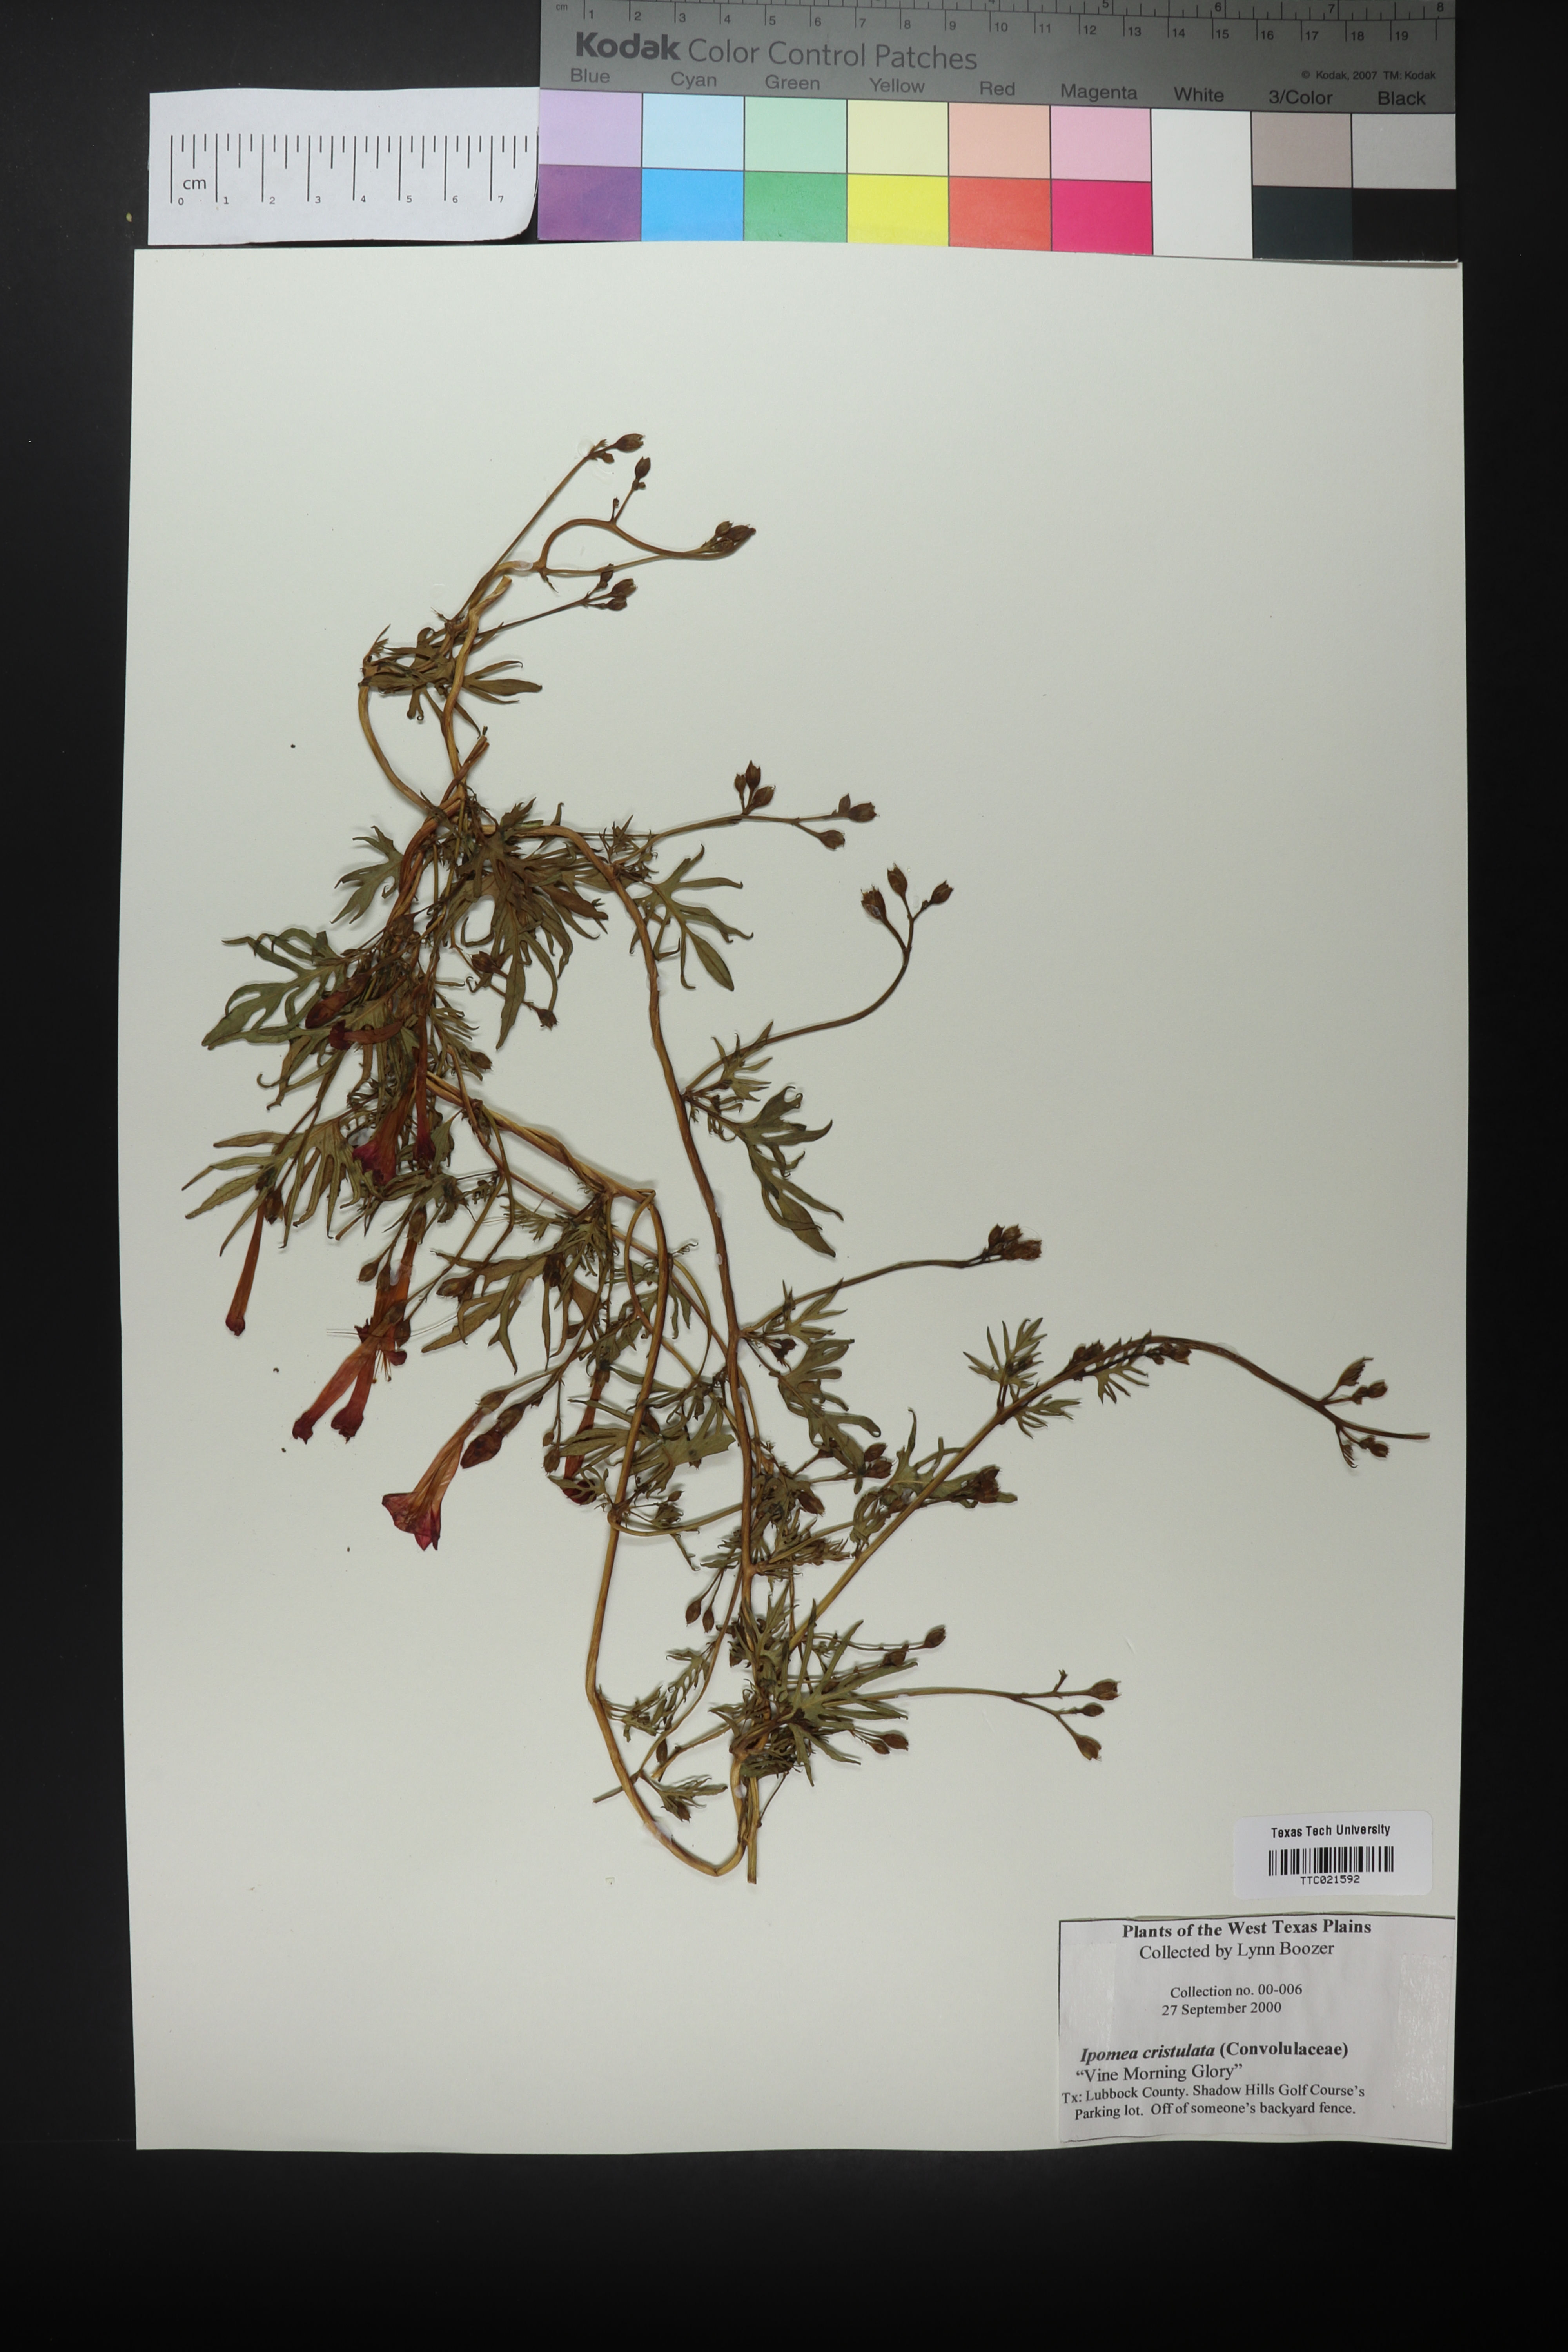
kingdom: Plantae
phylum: Tracheophyta
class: Magnoliopsida
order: Solanales
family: Convolvulaceae
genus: Ipomoea
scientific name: Ipomoea cristulata
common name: Trans-pecos morning-glory
